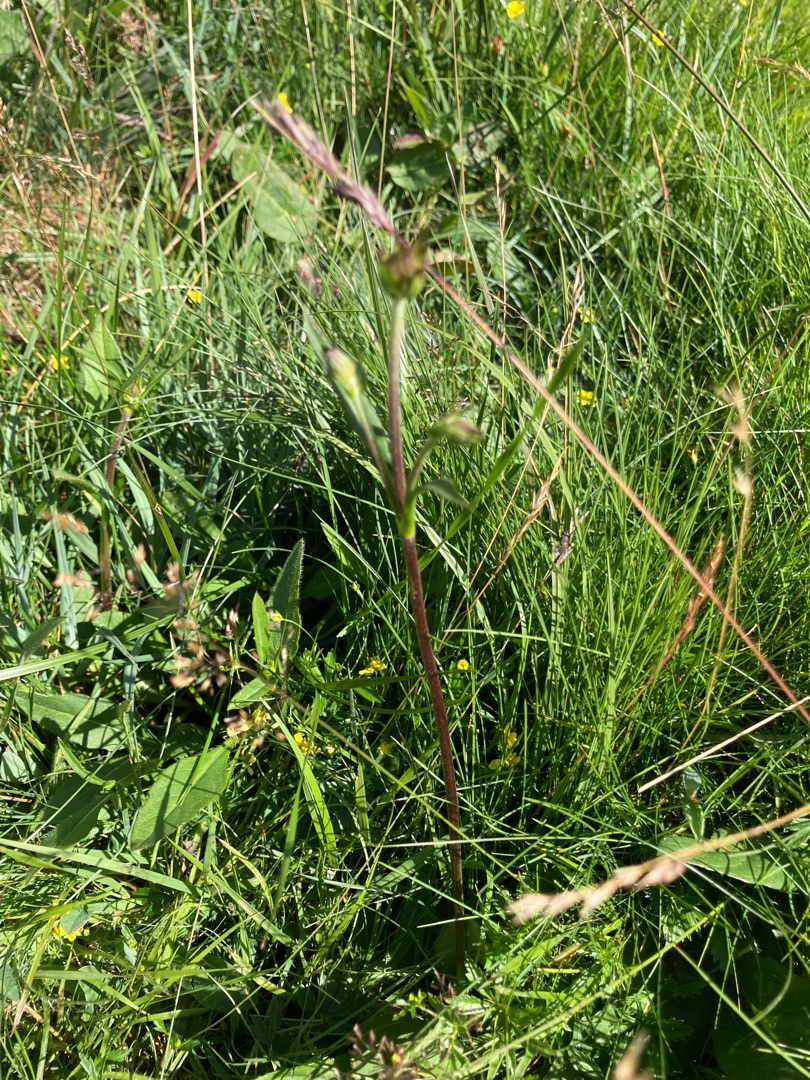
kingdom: Plantae
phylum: Tracheophyta
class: Magnoliopsida
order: Dipsacales
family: Caprifoliaceae
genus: Succisa
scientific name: Succisa pratensis
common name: Djævelsbid
